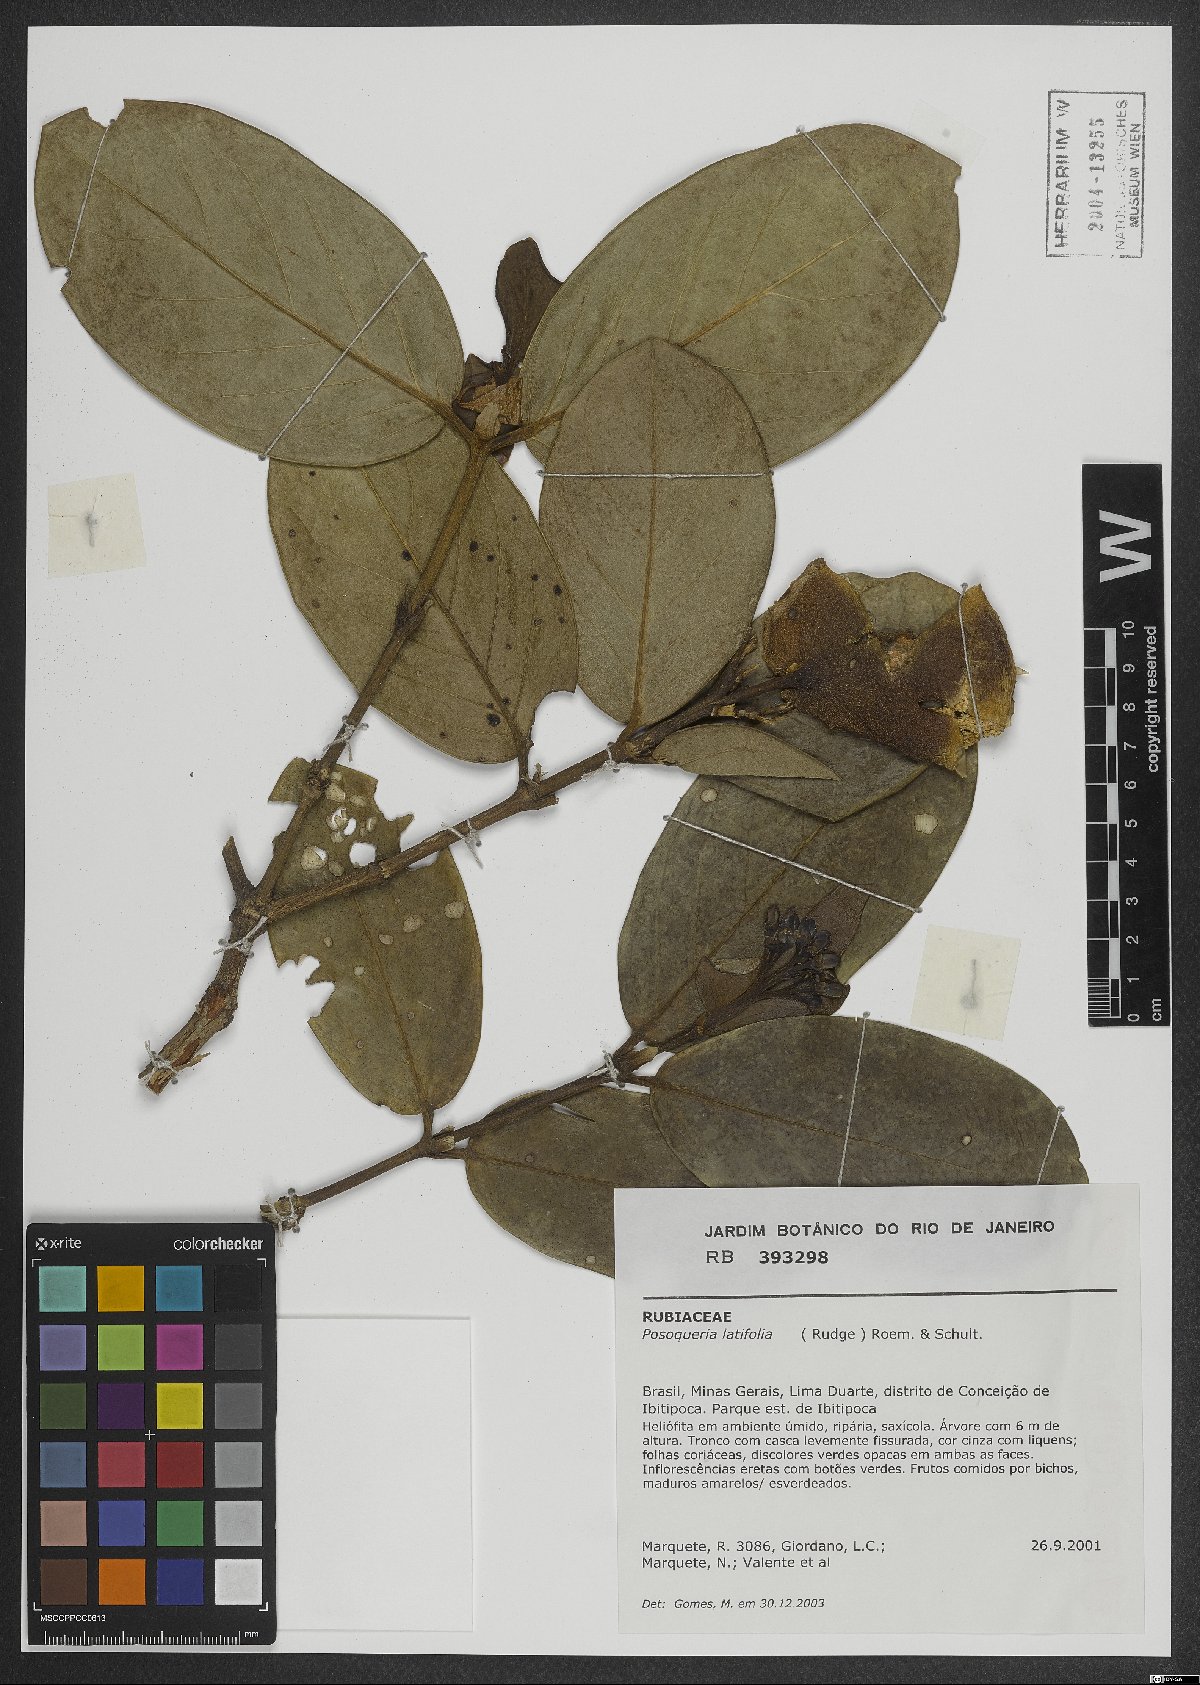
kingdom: Plantae
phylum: Tracheophyta
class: Magnoliopsida
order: Gentianales
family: Rubiaceae
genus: Posoqueria
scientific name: Posoqueria latifolia
